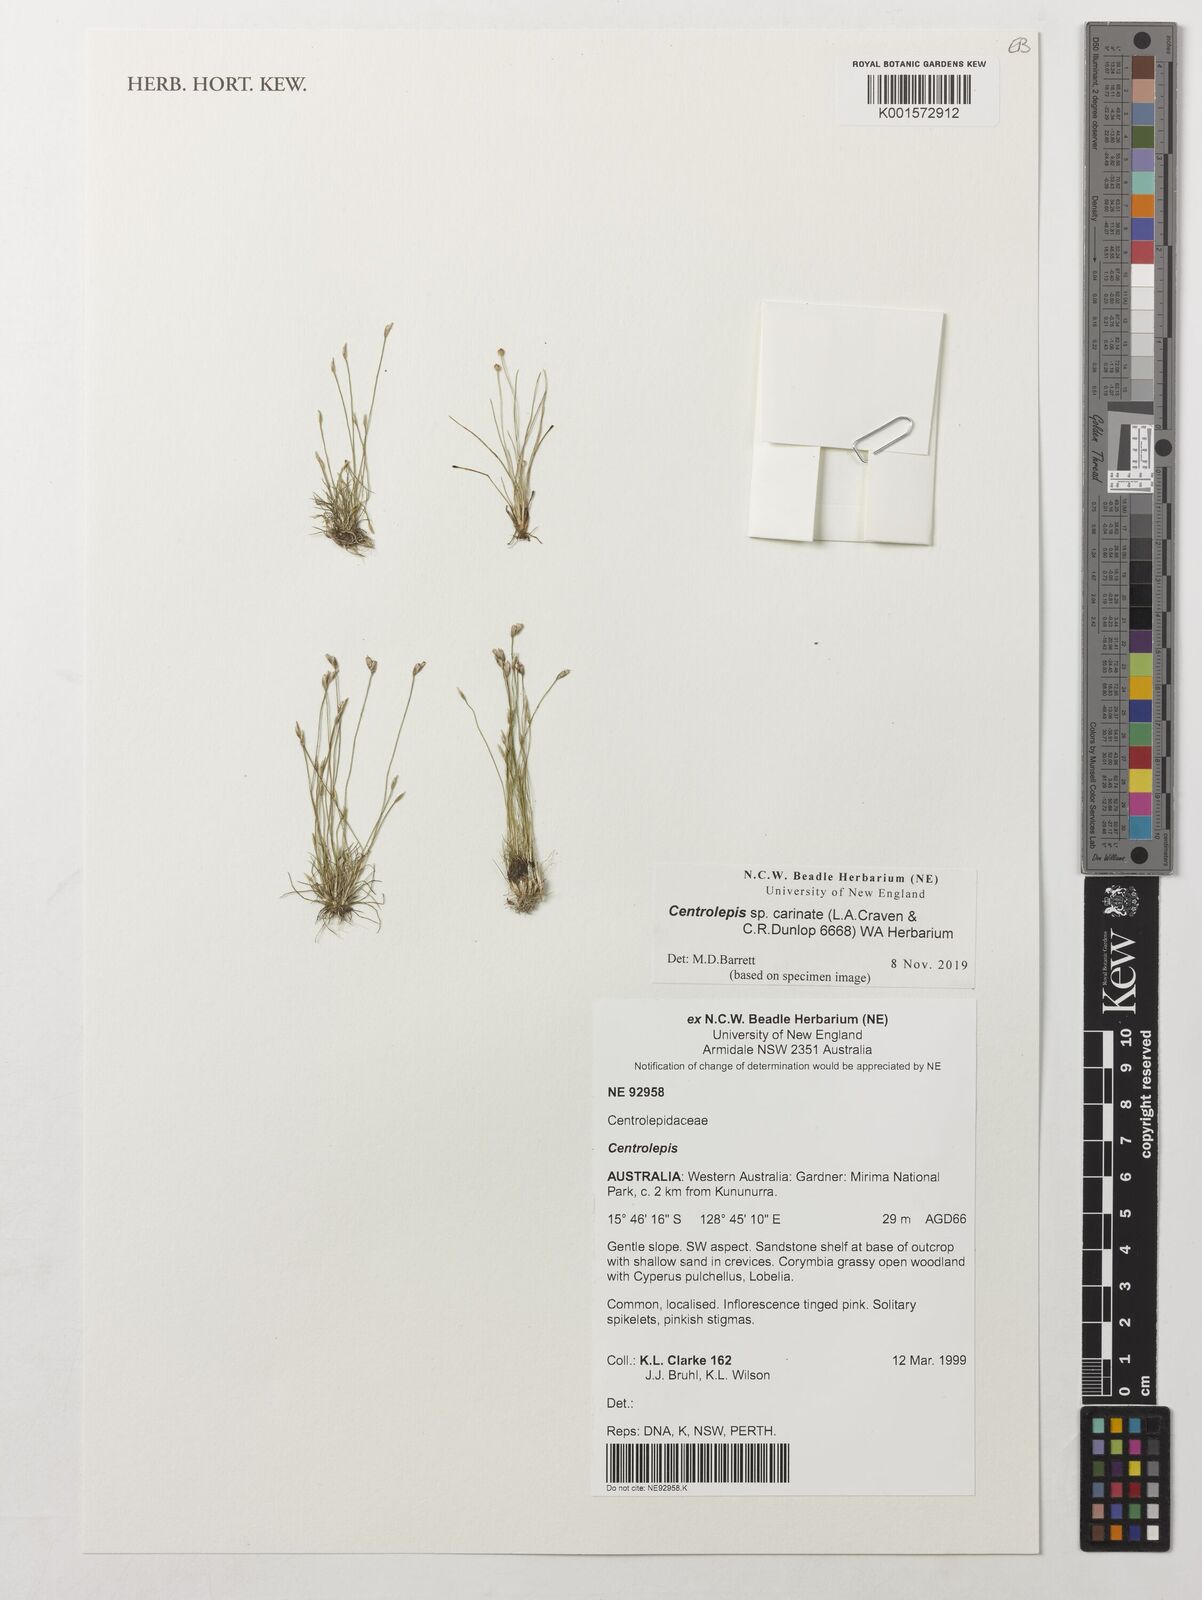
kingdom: Plantae
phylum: Tracheophyta
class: Liliopsida
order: Poales
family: Restionaceae
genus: Centrolepis
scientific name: Centrolepis
